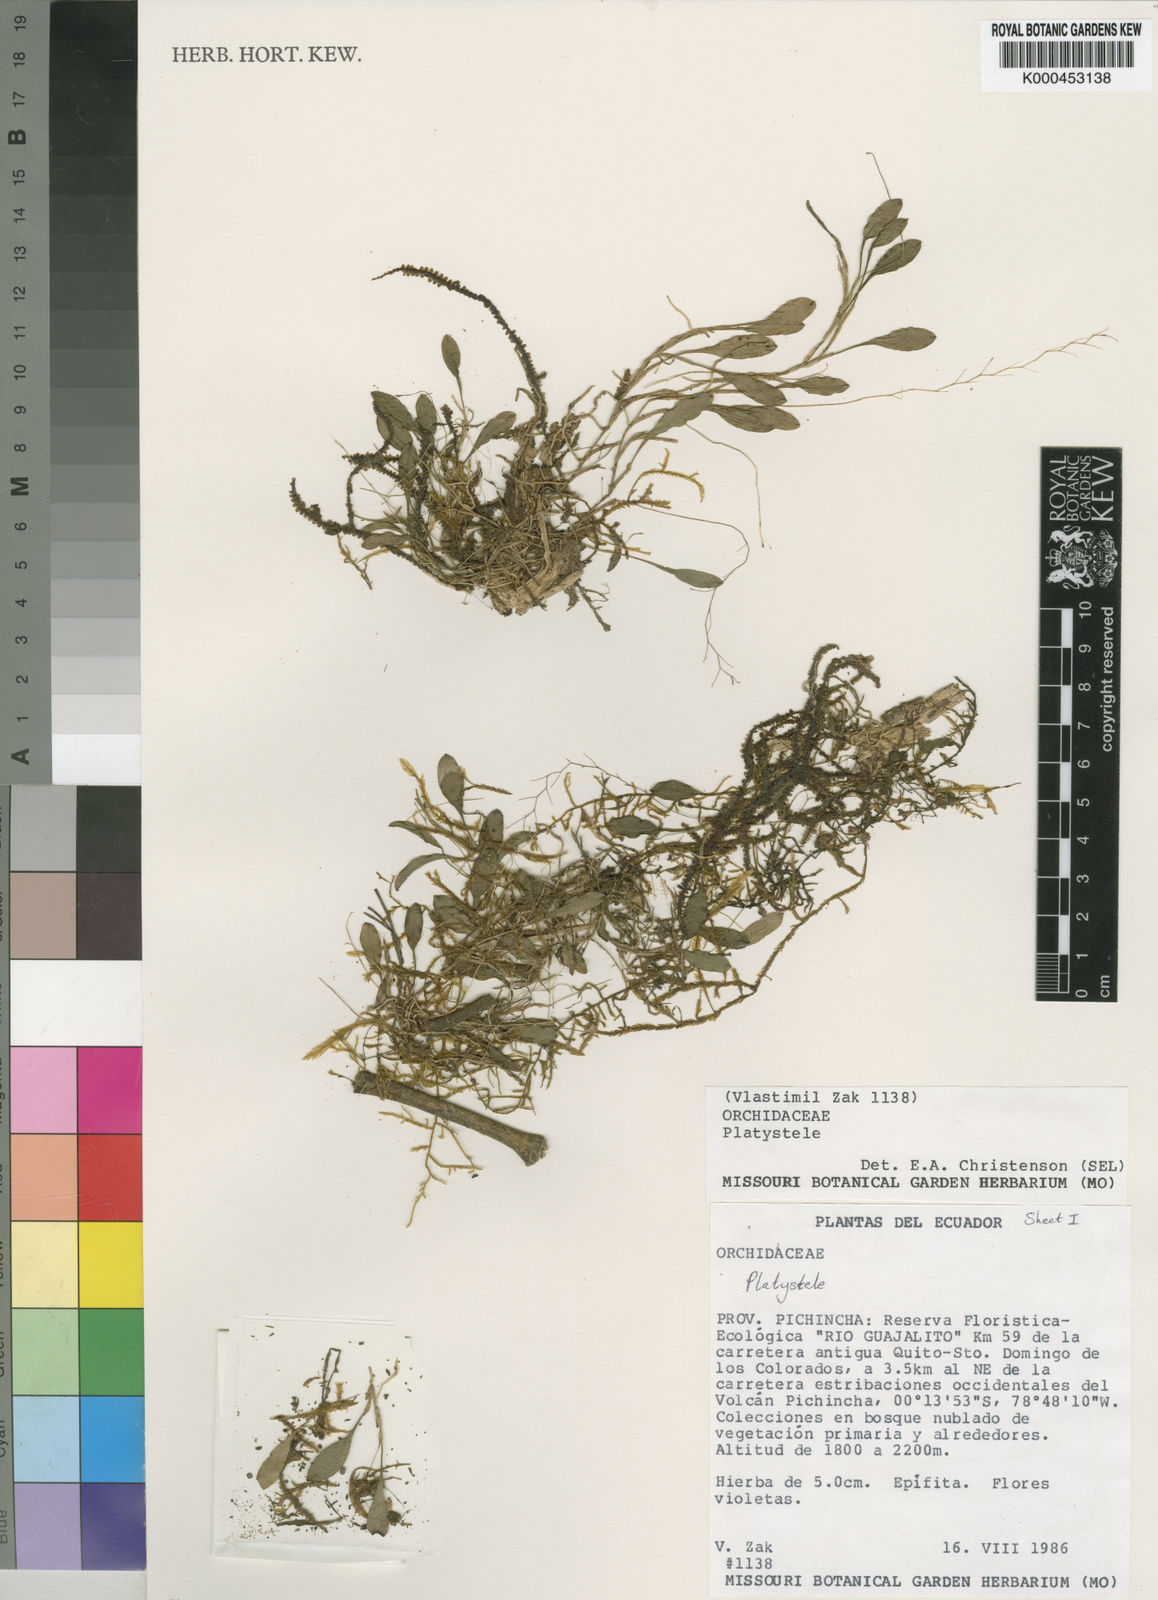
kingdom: Plantae
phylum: Tracheophyta
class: Liliopsida
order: Asparagales
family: Orchidaceae
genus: Platystele
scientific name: Platystele
